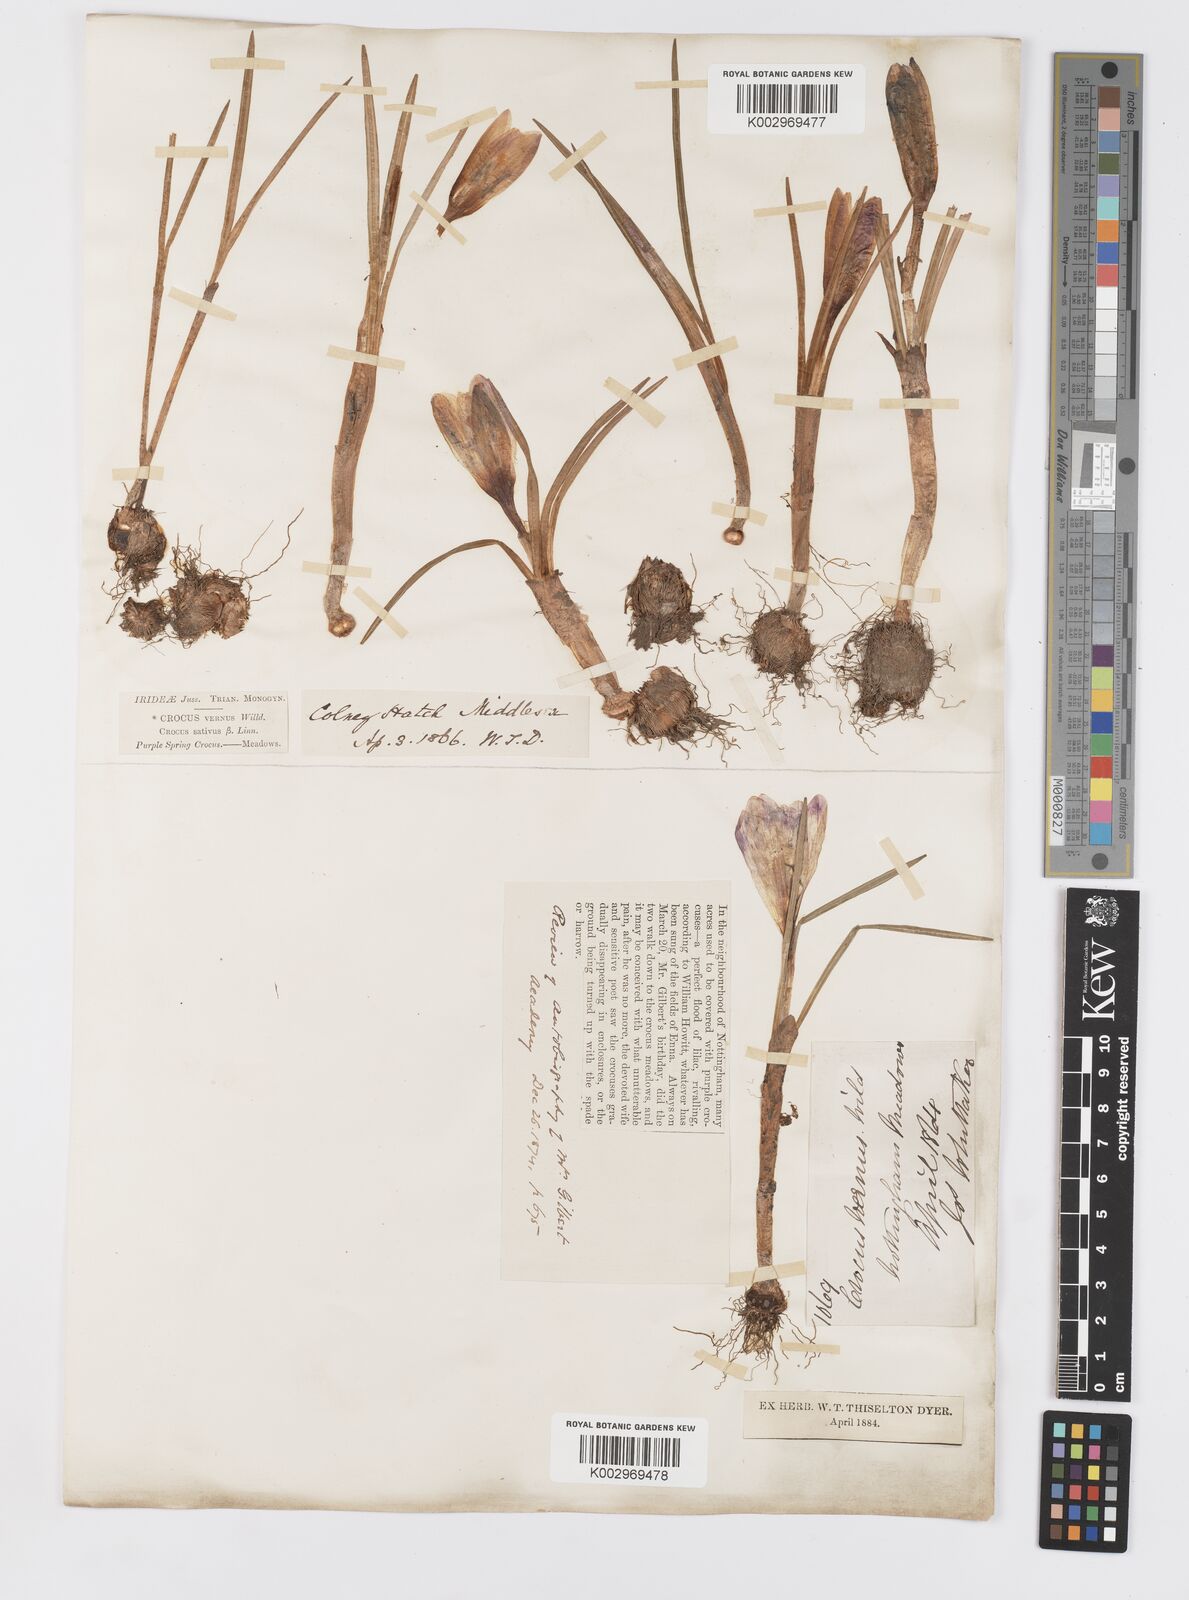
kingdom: Plantae
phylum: Tracheophyta
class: Liliopsida
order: Asparagales
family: Iridaceae
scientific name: Iridaceae
